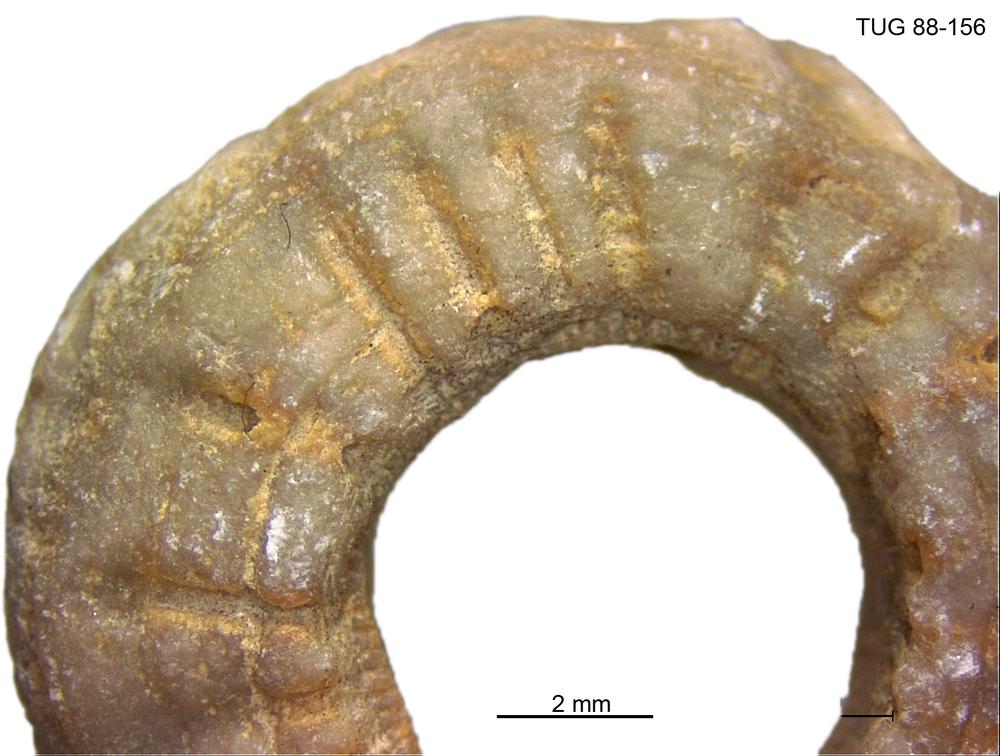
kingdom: Animalia
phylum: Echinodermata
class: Crinoidea
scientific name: Crinoidea
